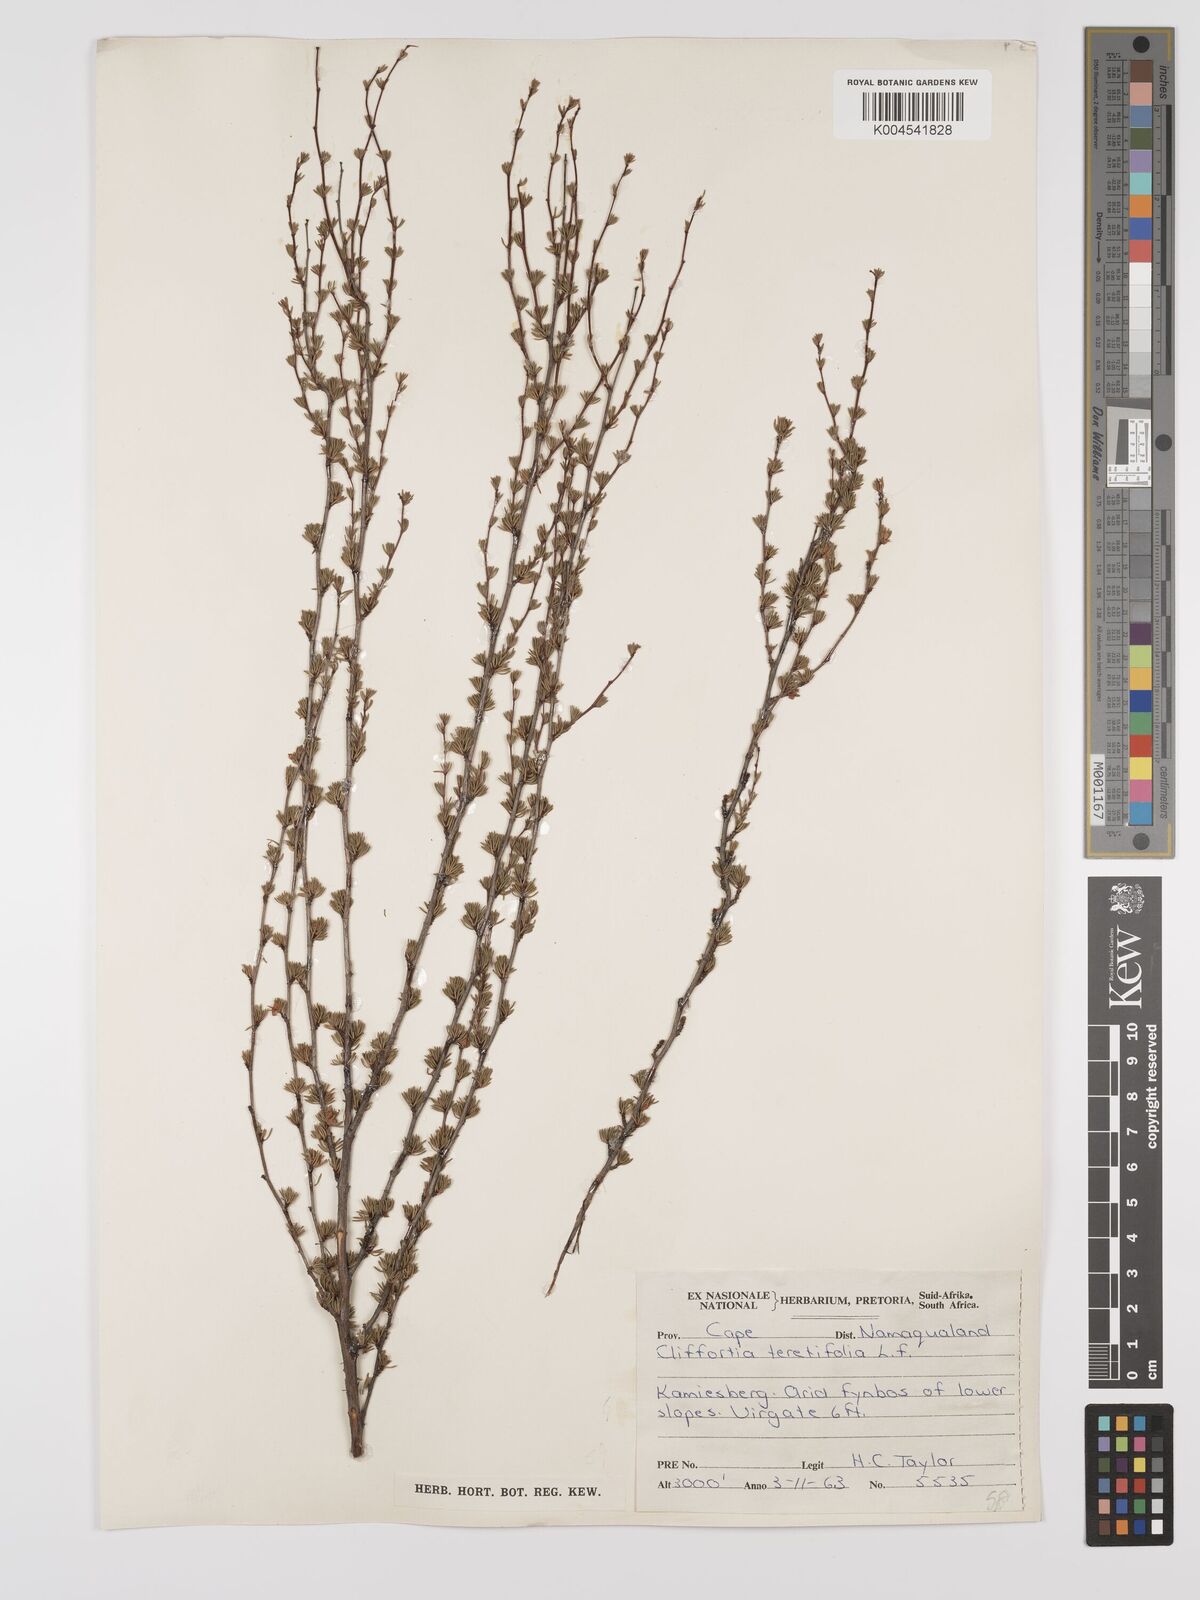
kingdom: Plantae
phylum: Tracheophyta
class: Magnoliopsida
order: Rosales
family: Rosaceae
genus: Cliffortia
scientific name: Cliffortia teretifolia
